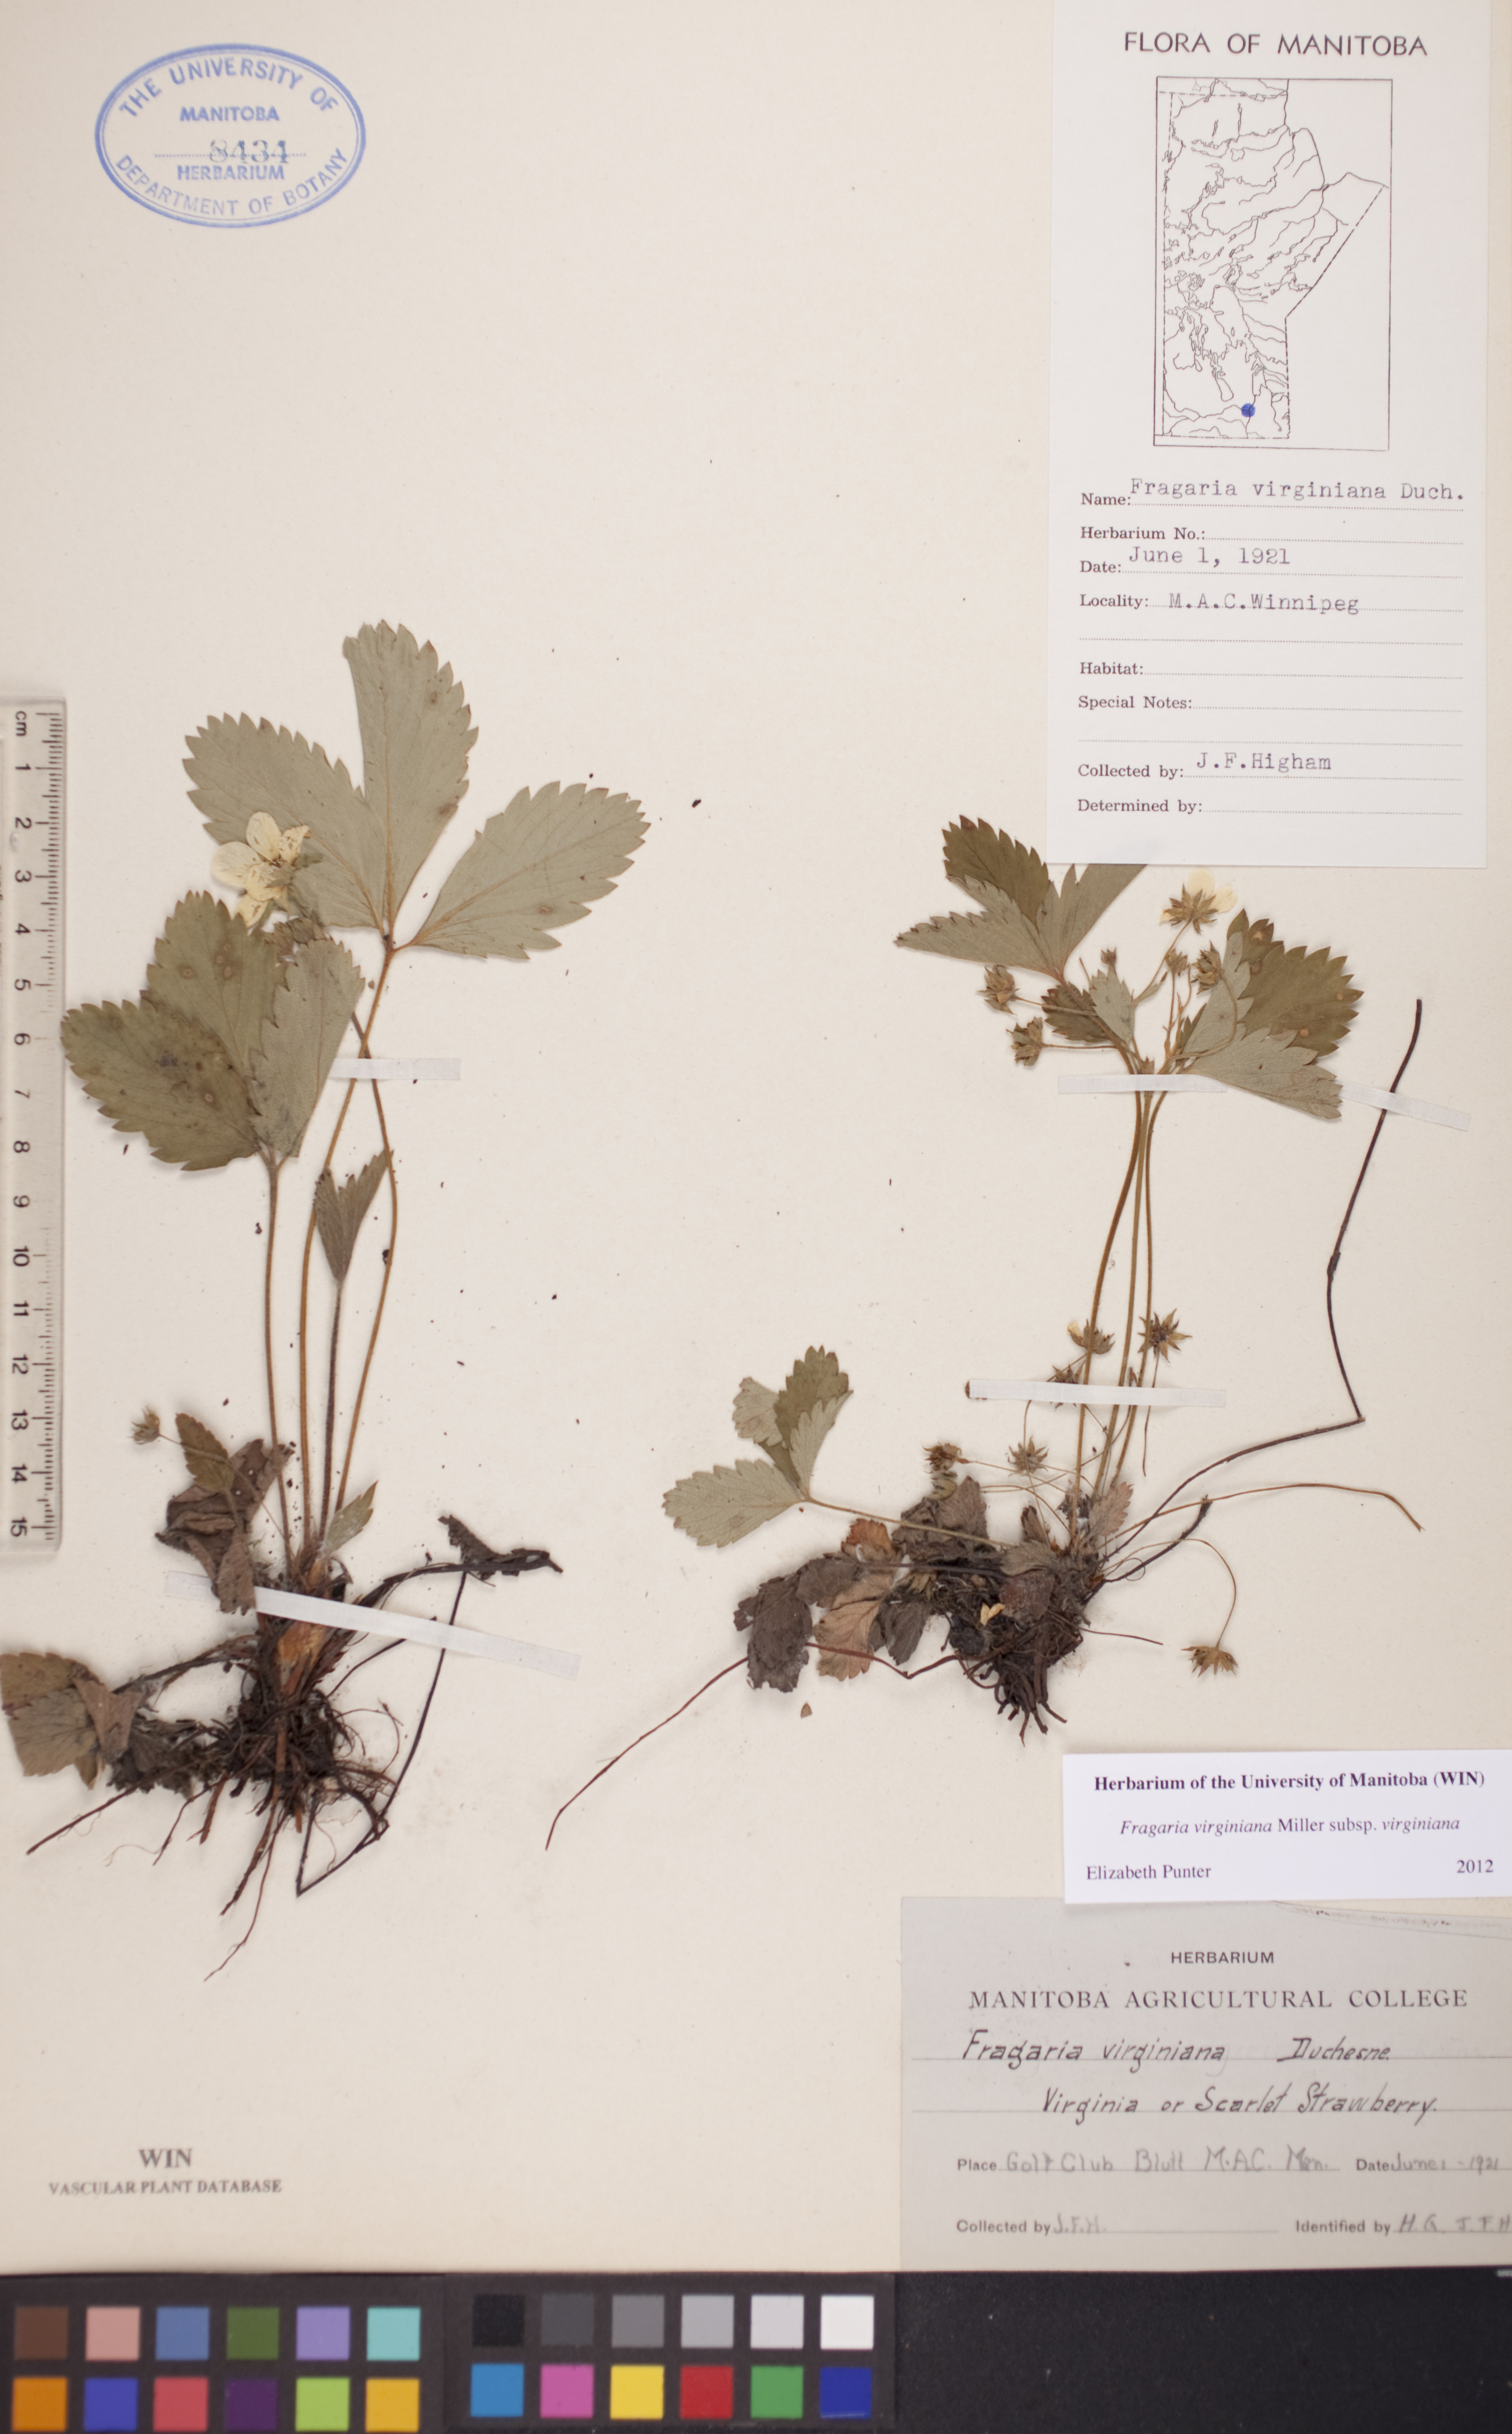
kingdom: Plantae
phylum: Tracheophyta
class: Magnoliopsida
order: Rosales
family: Rosaceae
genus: Fragaria
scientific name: Fragaria virginiana
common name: Thickleaved wild strawberry
